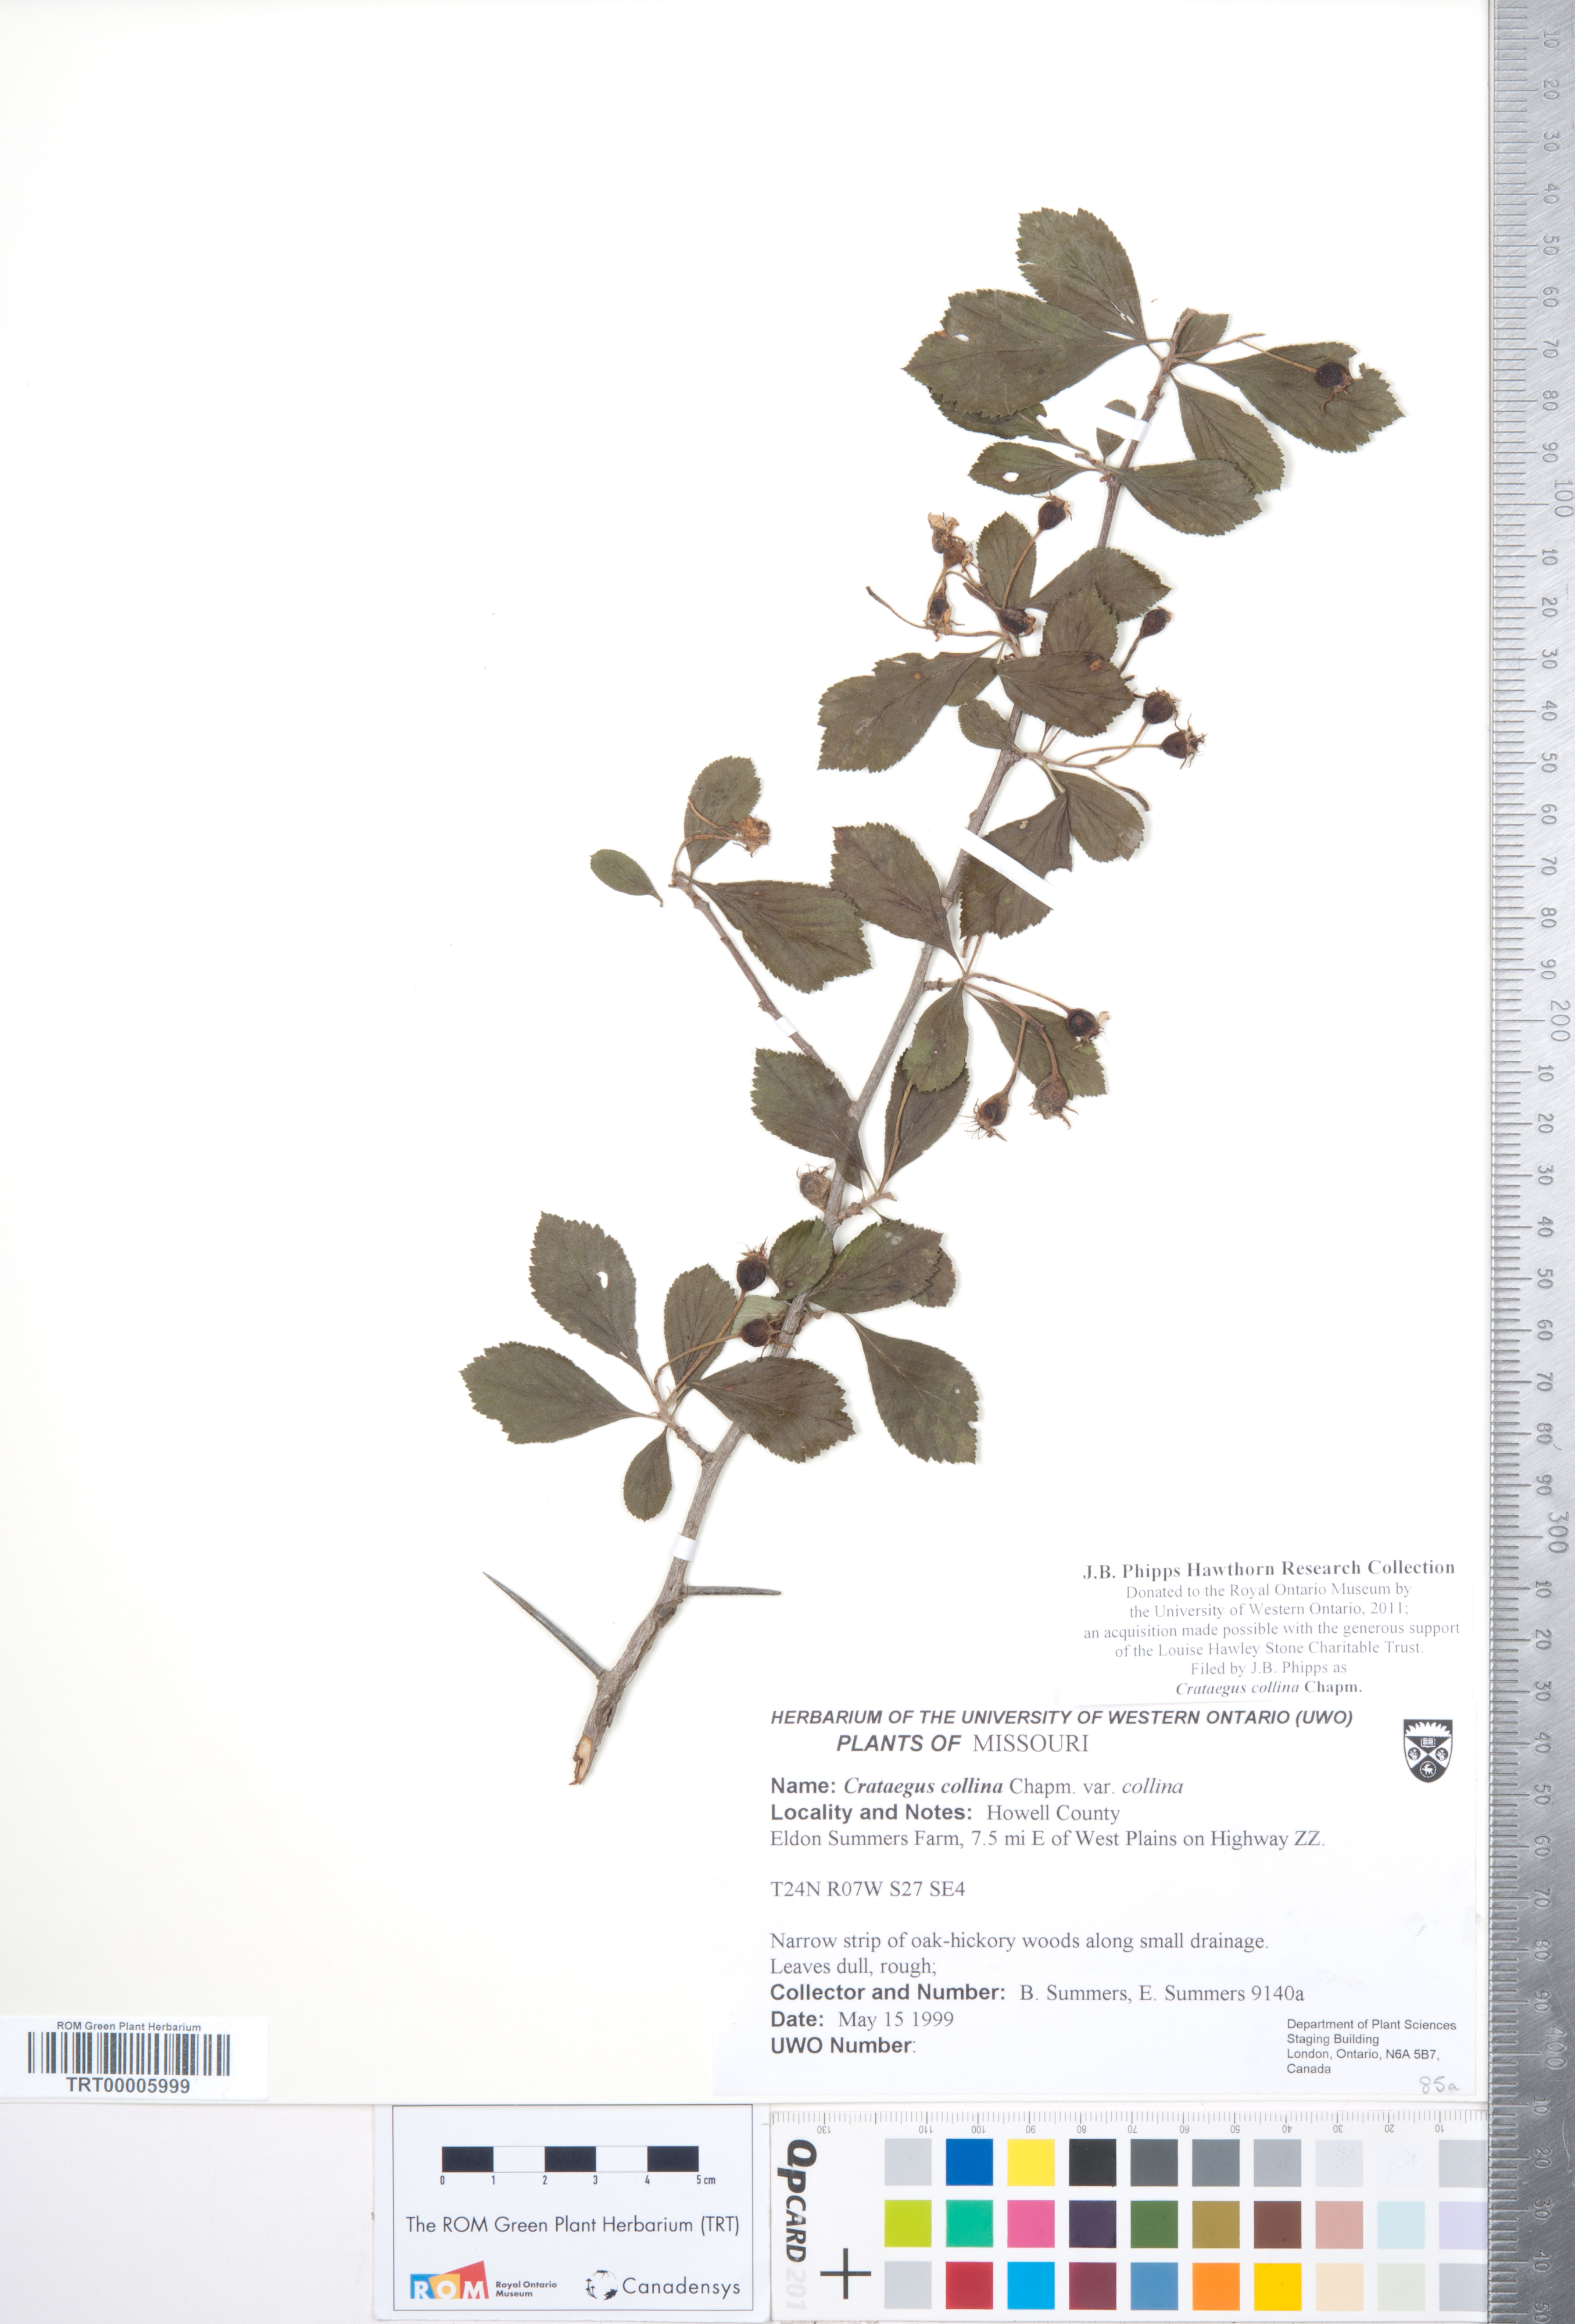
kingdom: Plantae
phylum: Tracheophyta
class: Magnoliopsida
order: Rosales
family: Rosaceae
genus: Crataegus
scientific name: Crataegus collina
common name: Hillside hawthorn
